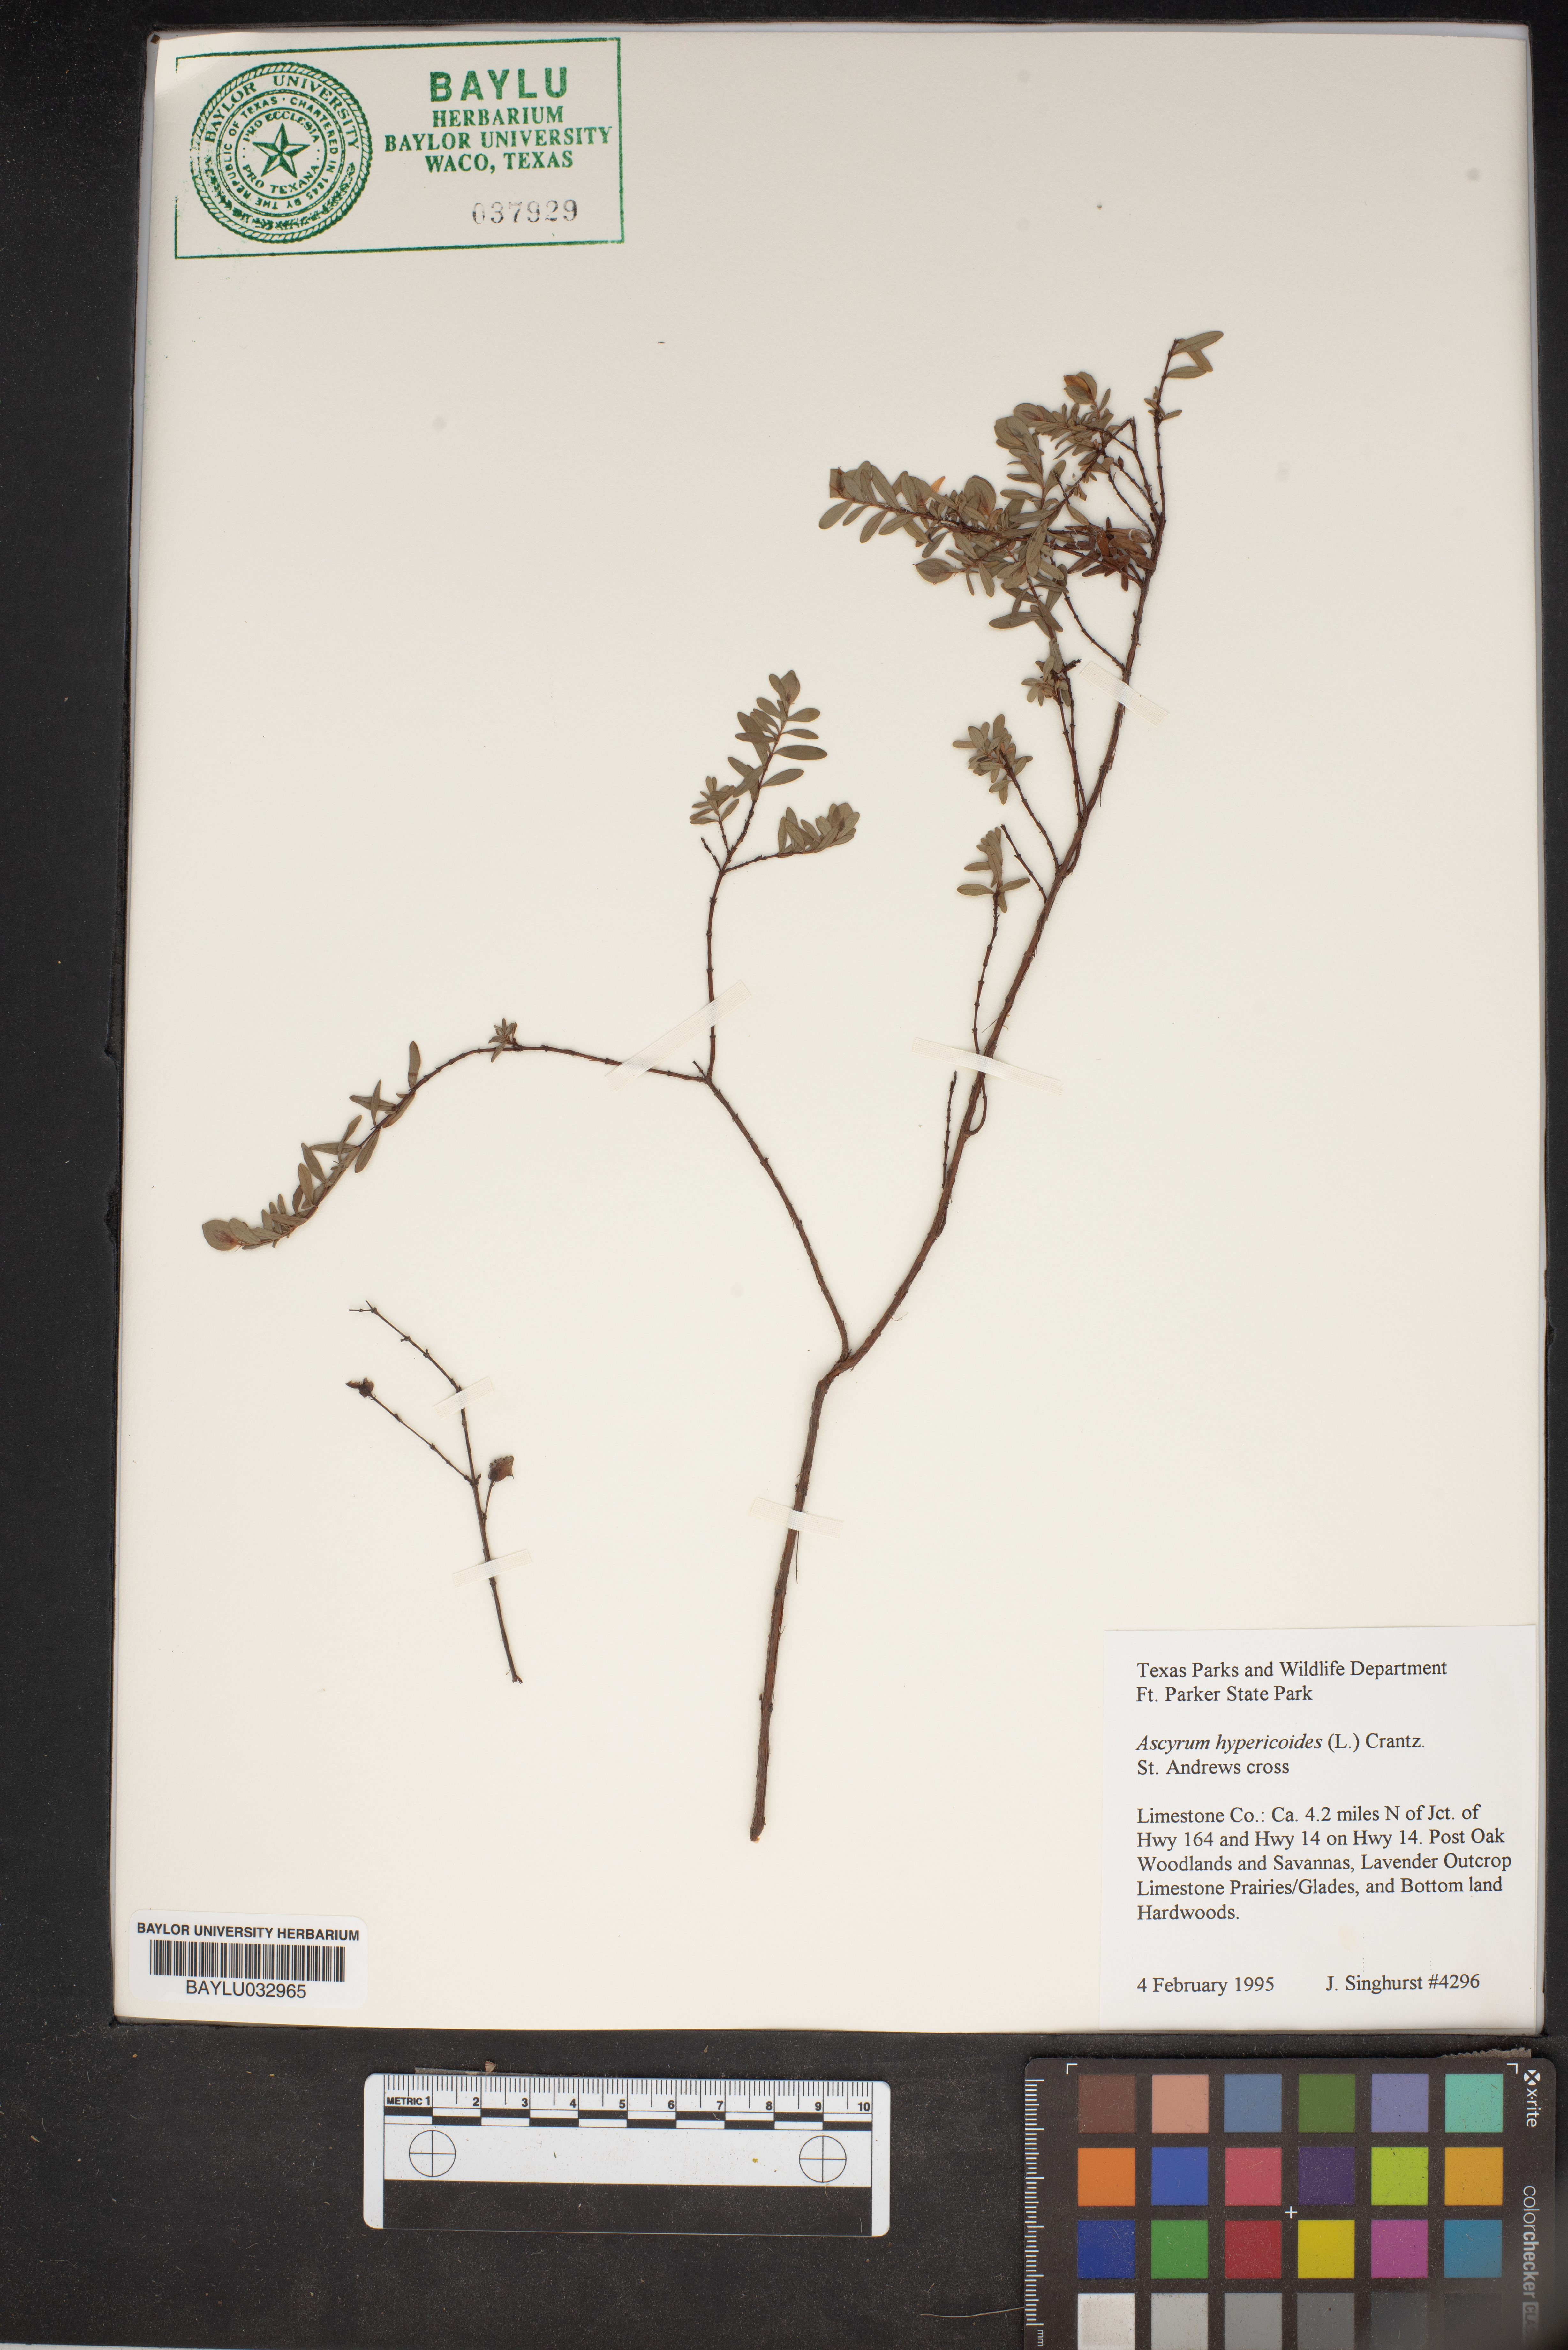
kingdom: Plantae
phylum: Tracheophyta
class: Magnoliopsida
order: Malpighiales
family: Hypericaceae
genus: Hypericum
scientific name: Hypericum hypericoides
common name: St. andrew's cross
